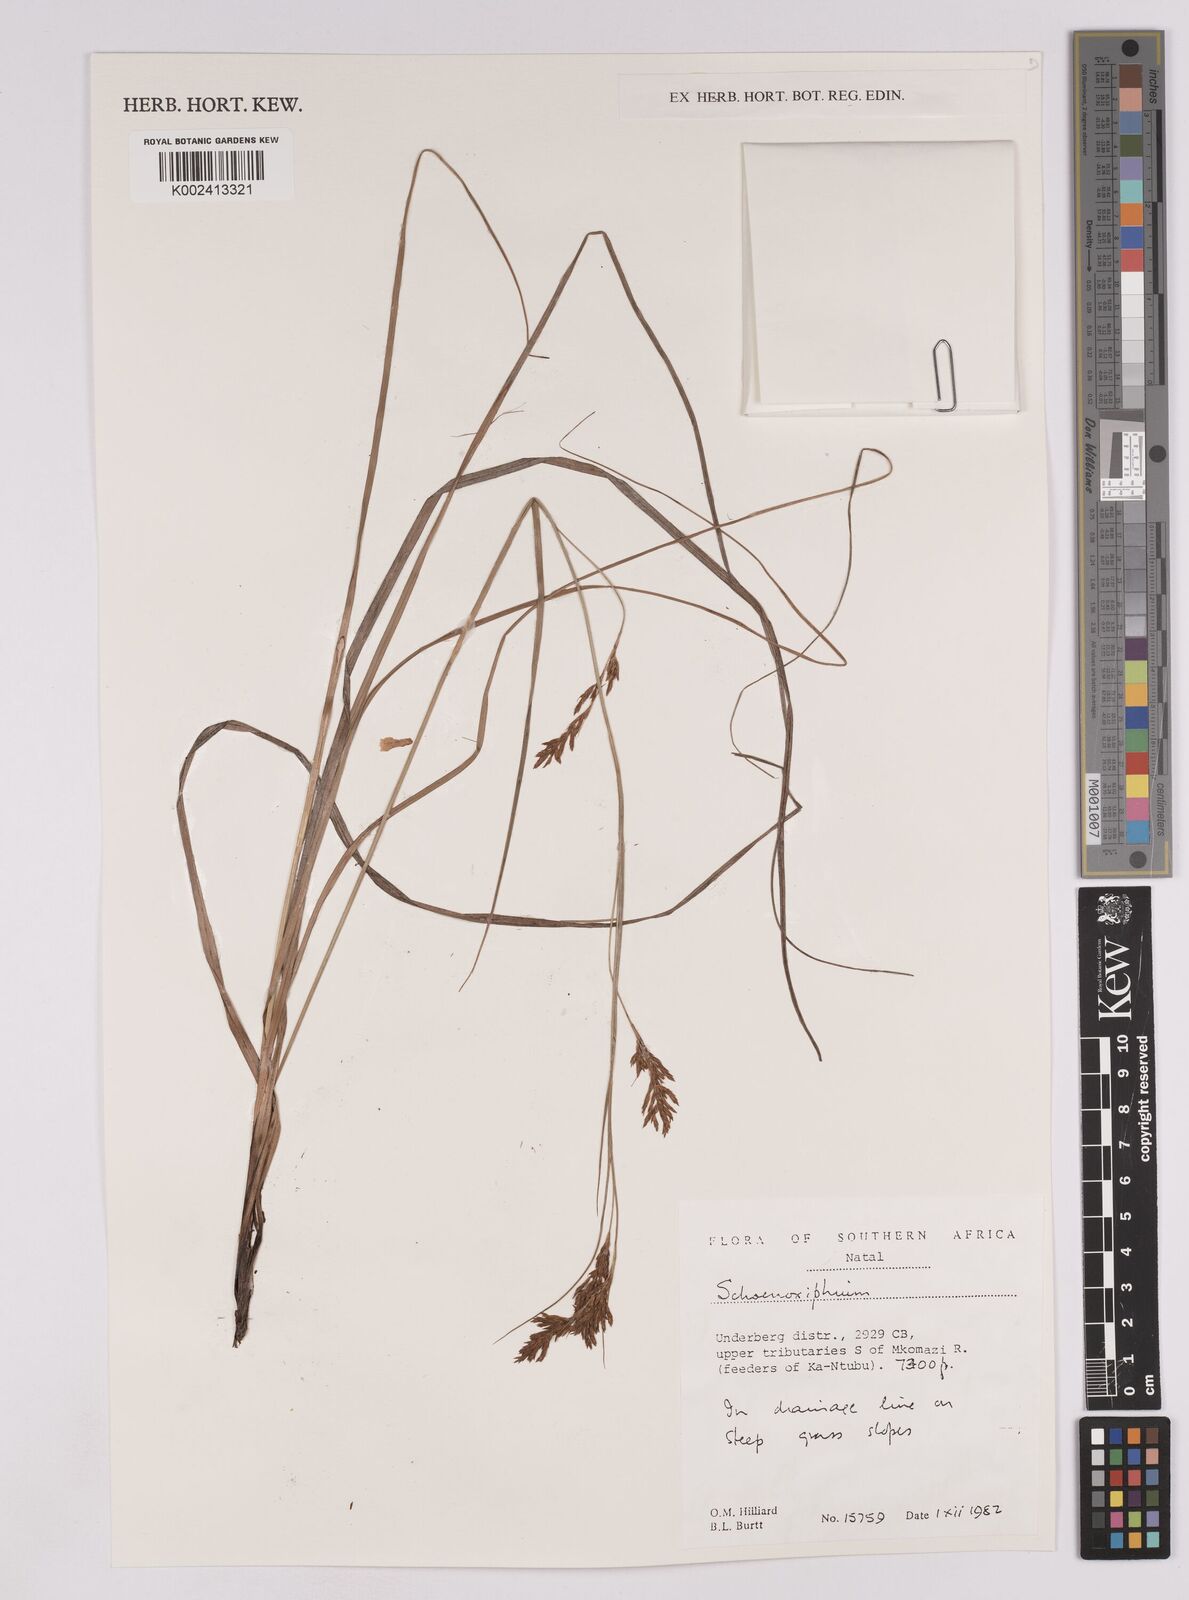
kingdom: Plantae
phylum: Tracheophyta
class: Liliopsida
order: Poales
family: Cyperaceae
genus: Carex
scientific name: Carex
